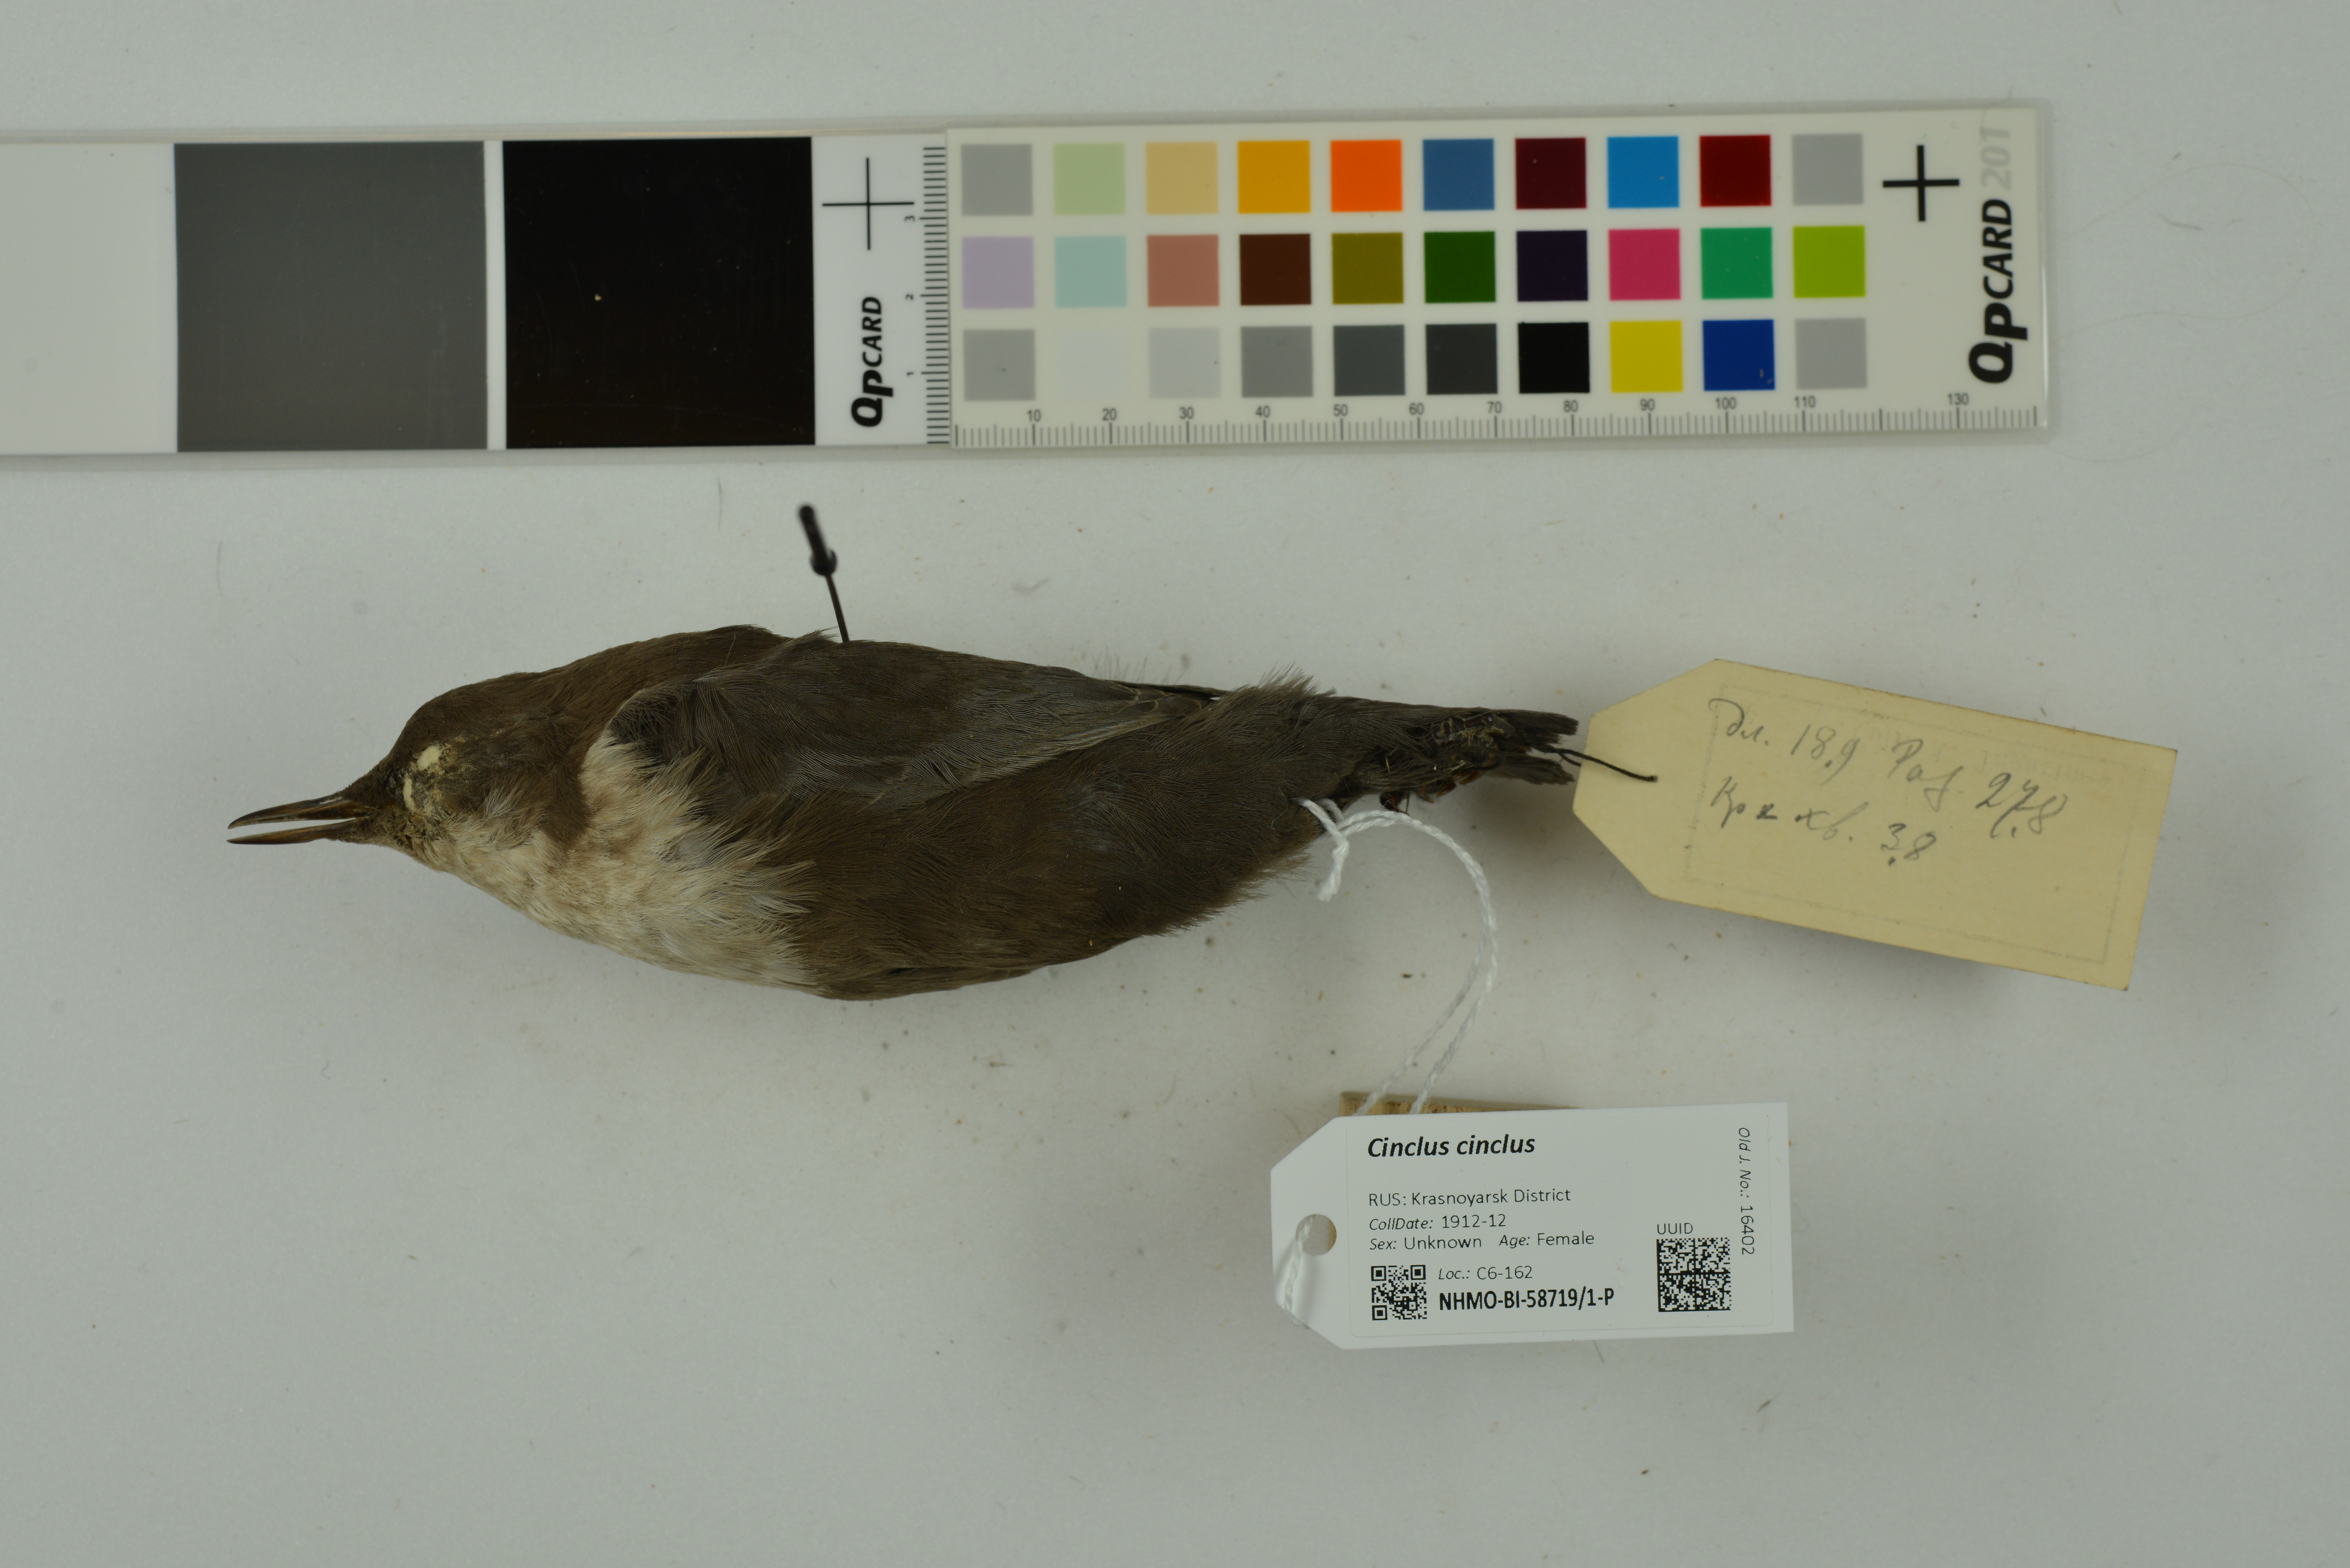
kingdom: Animalia
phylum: Chordata
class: Aves
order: Passeriformes
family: Cinclidae
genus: Cinclus
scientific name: Cinclus cinclus
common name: White-throated dipper
